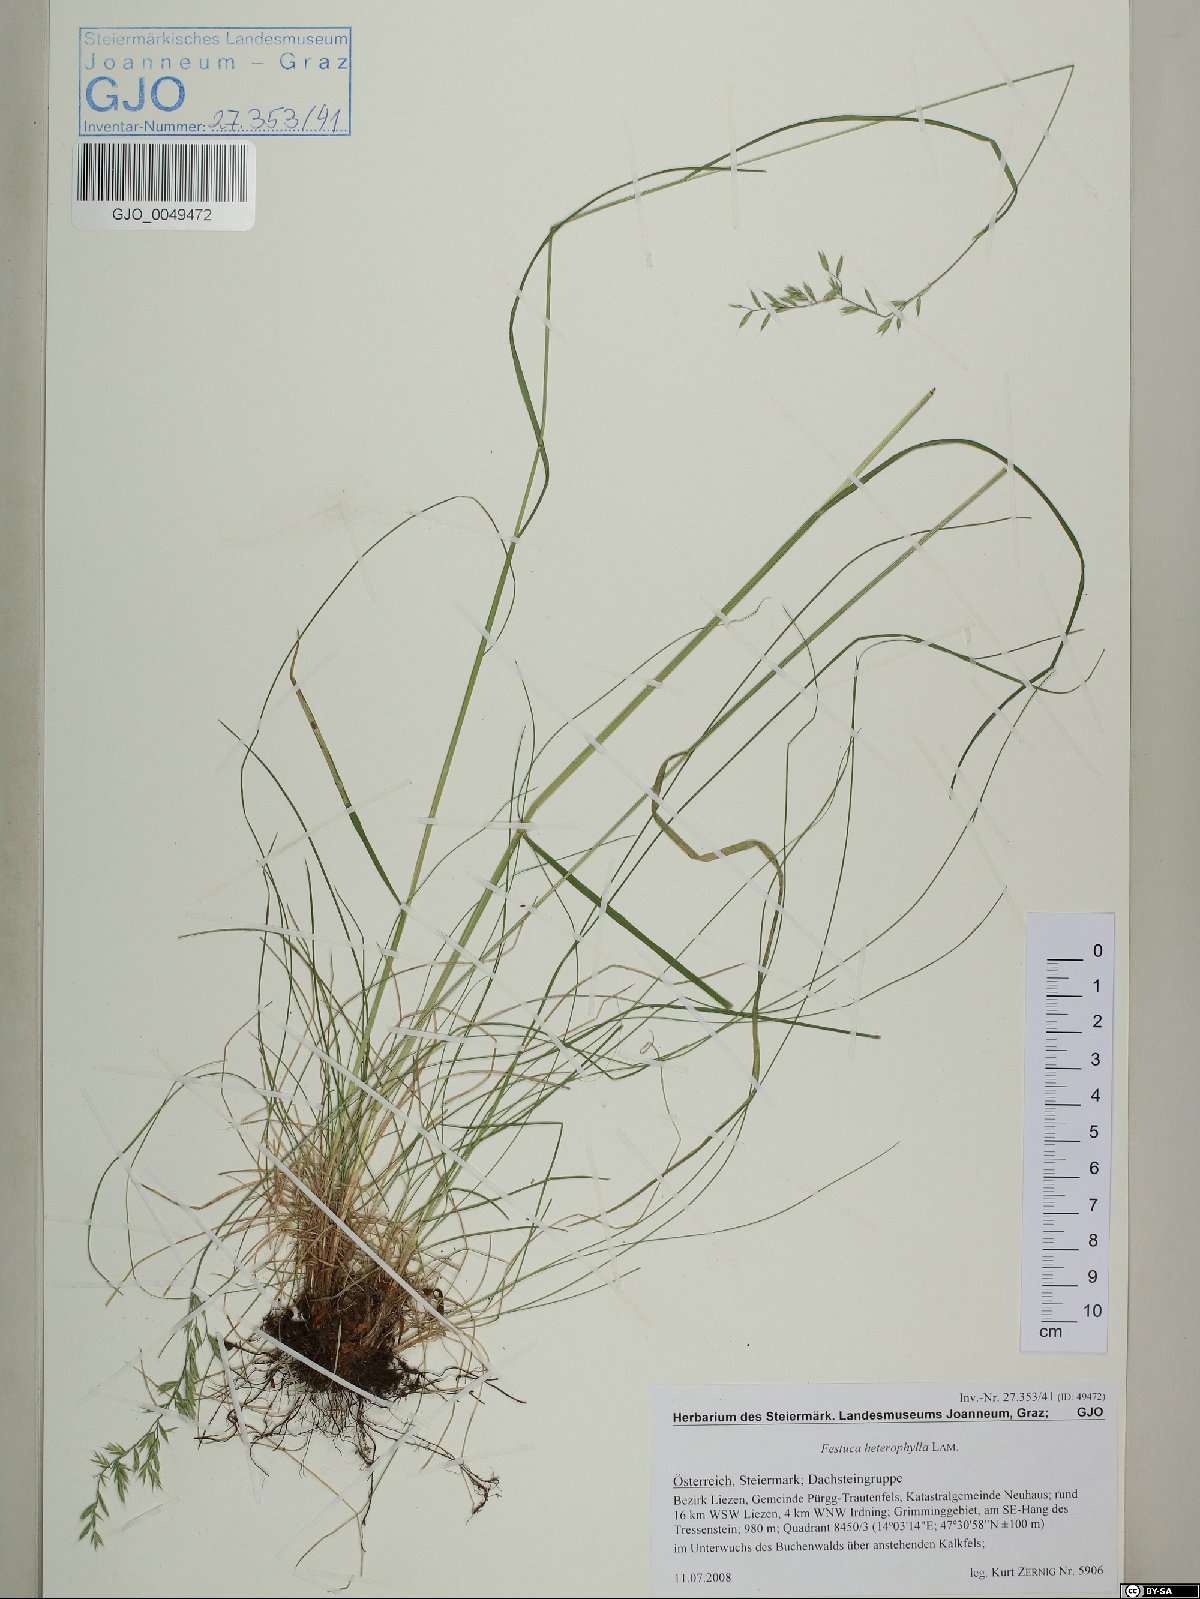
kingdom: Plantae
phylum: Tracheophyta
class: Liliopsida
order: Poales
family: Poaceae
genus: Festuca
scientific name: Festuca heterophylla
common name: Various-leaved fescue
